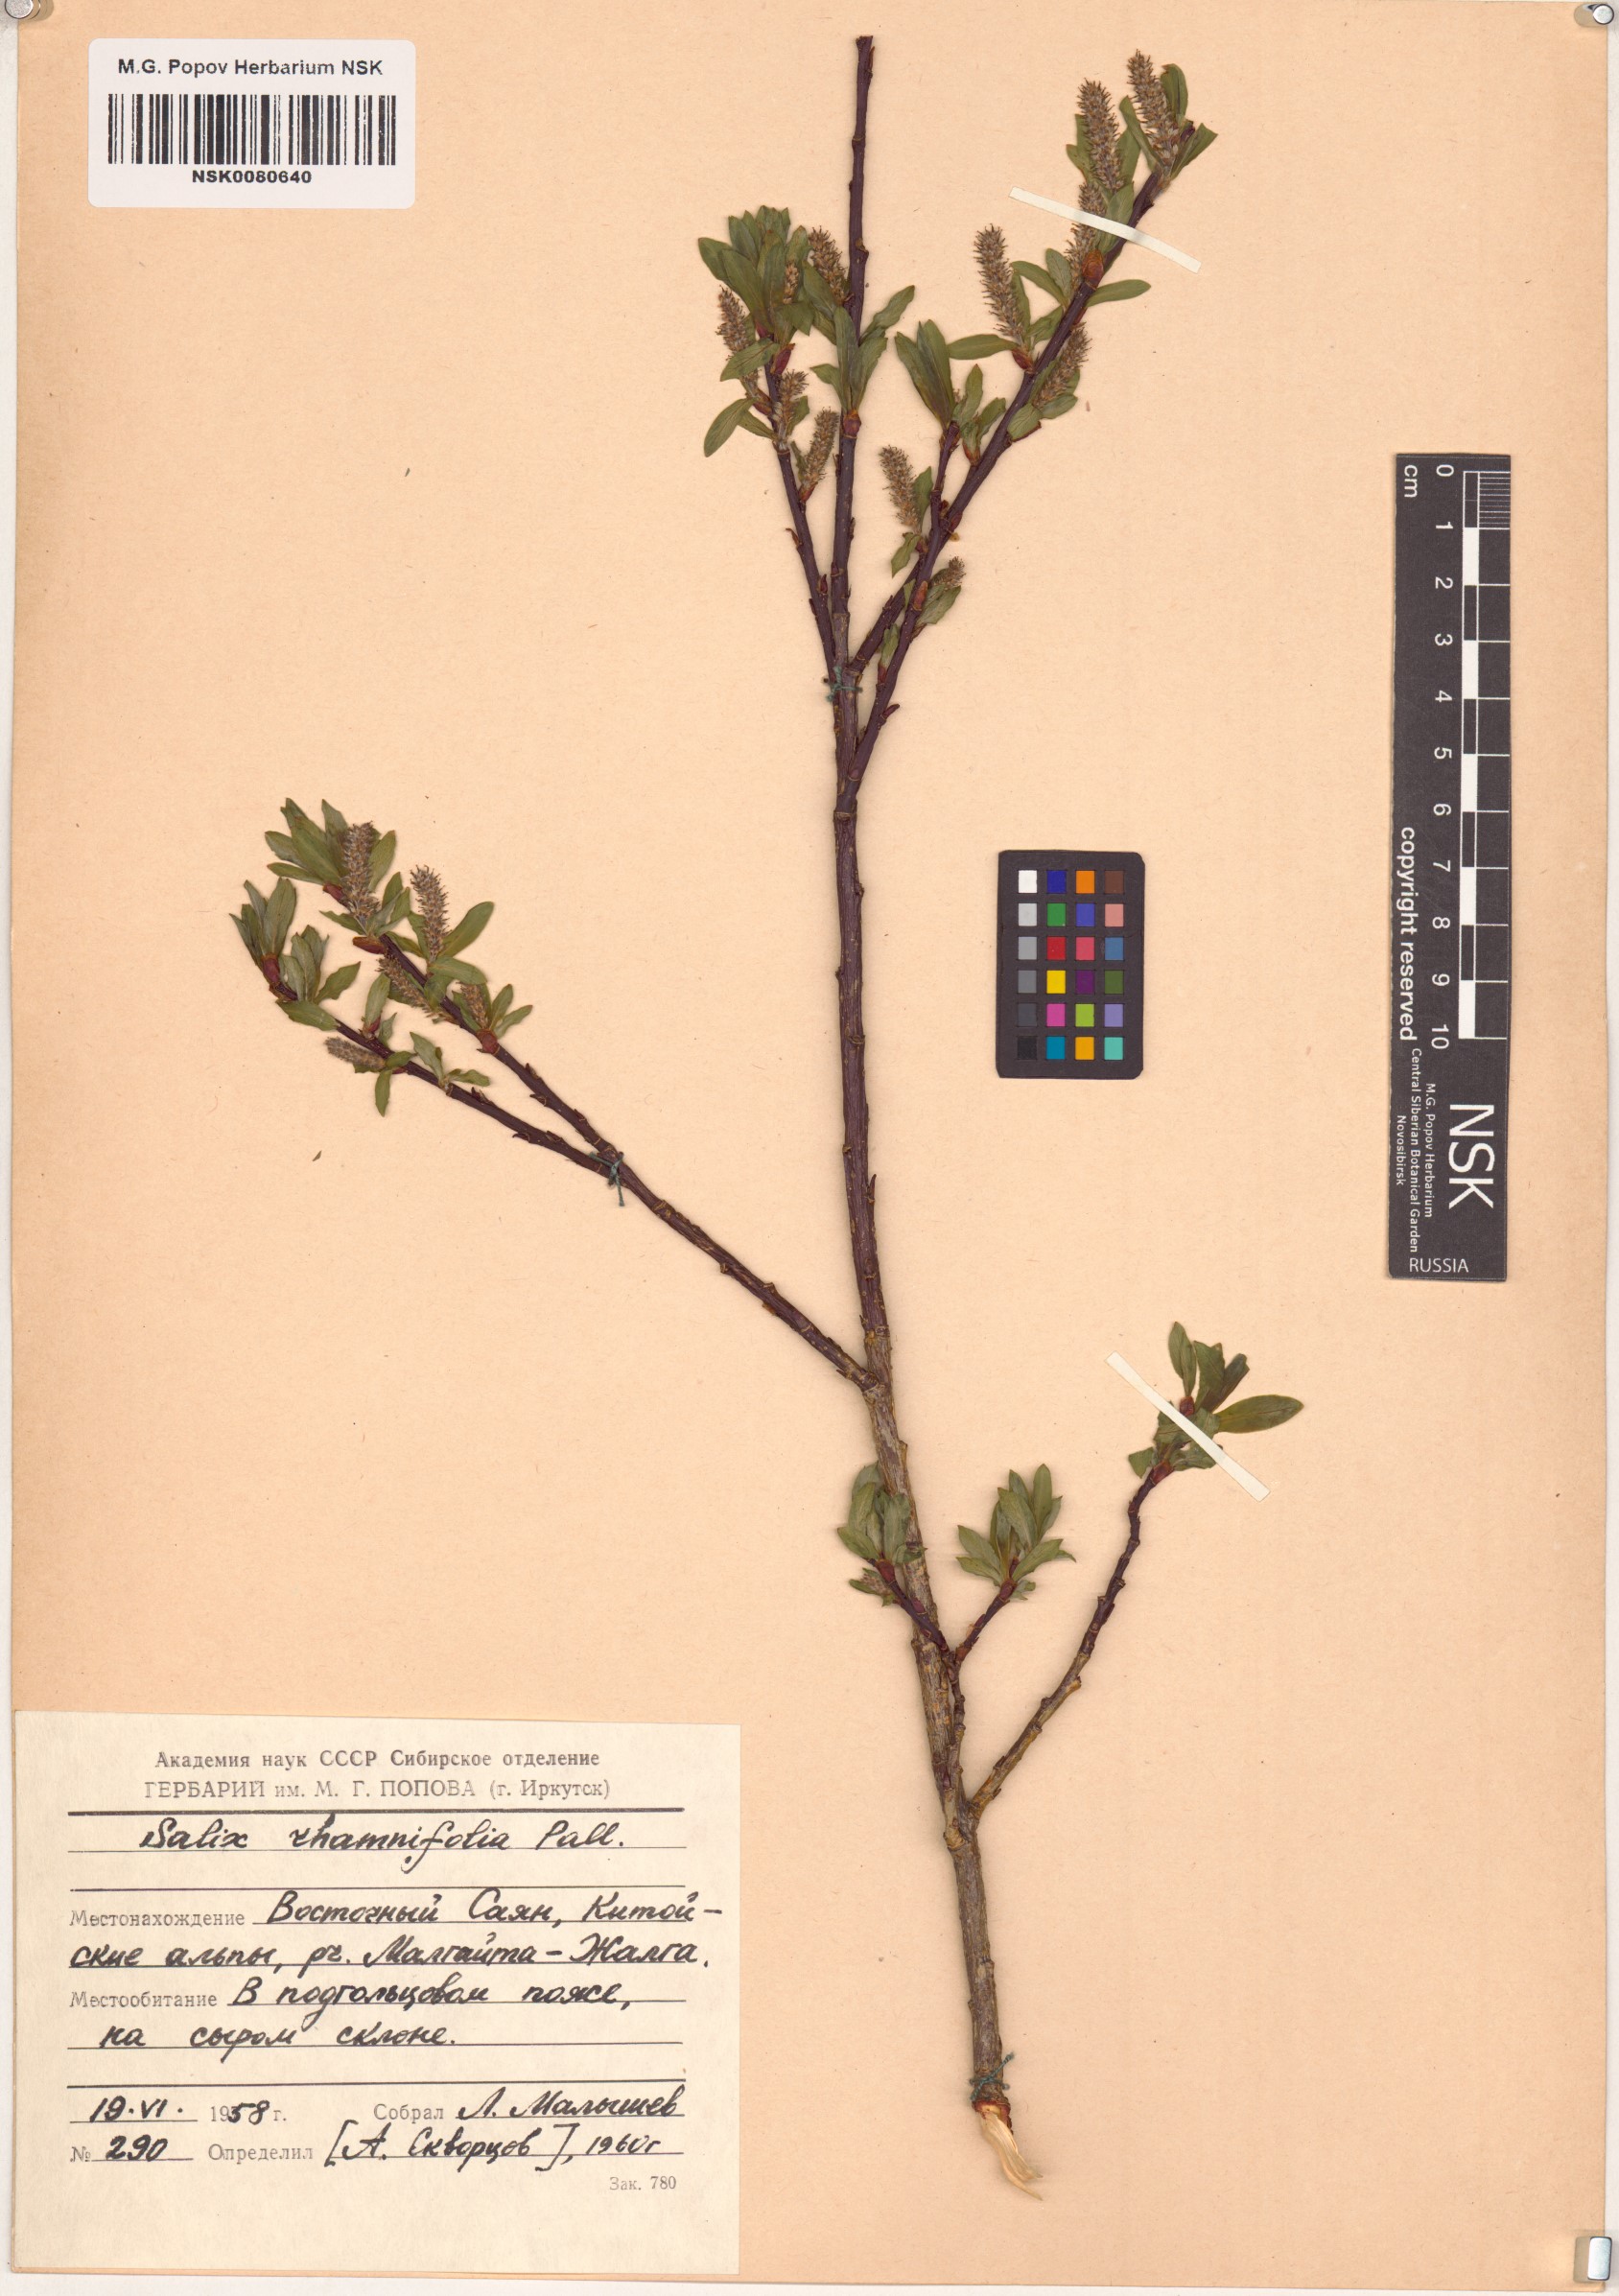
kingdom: Plantae
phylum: Tracheophyta
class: Magnoliopsida
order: Malpighiales
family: Salicaceae
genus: Salix
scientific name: Salix rhamnifolia
